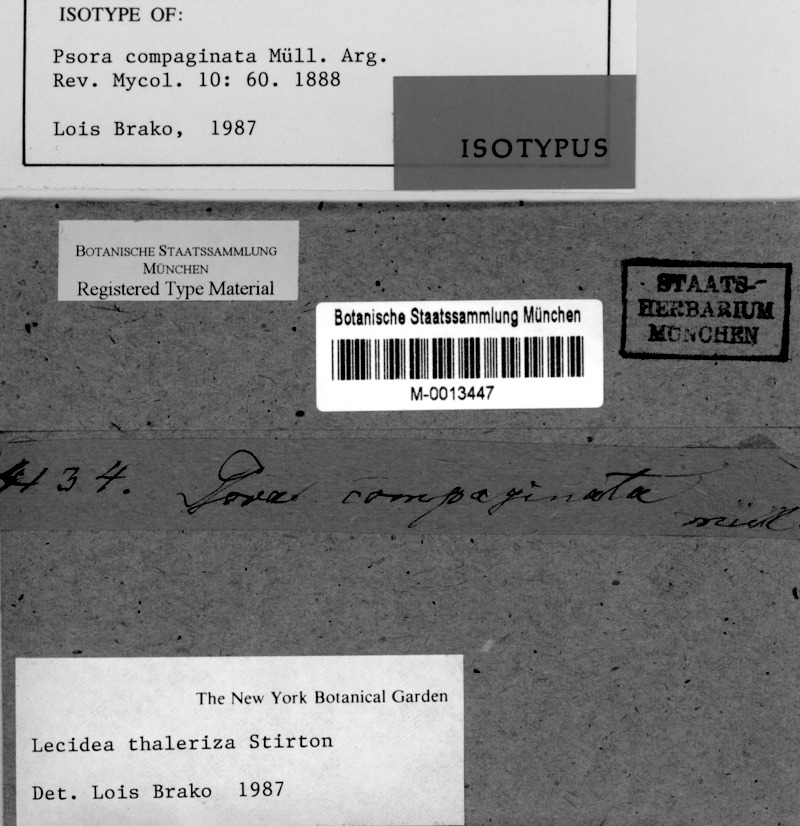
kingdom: Fungi
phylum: Ascomycota
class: Lecanoromycetes
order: Lecanorales
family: Ramalinaceae
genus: Phyllopsora
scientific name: Phyllopsora thaleriza
